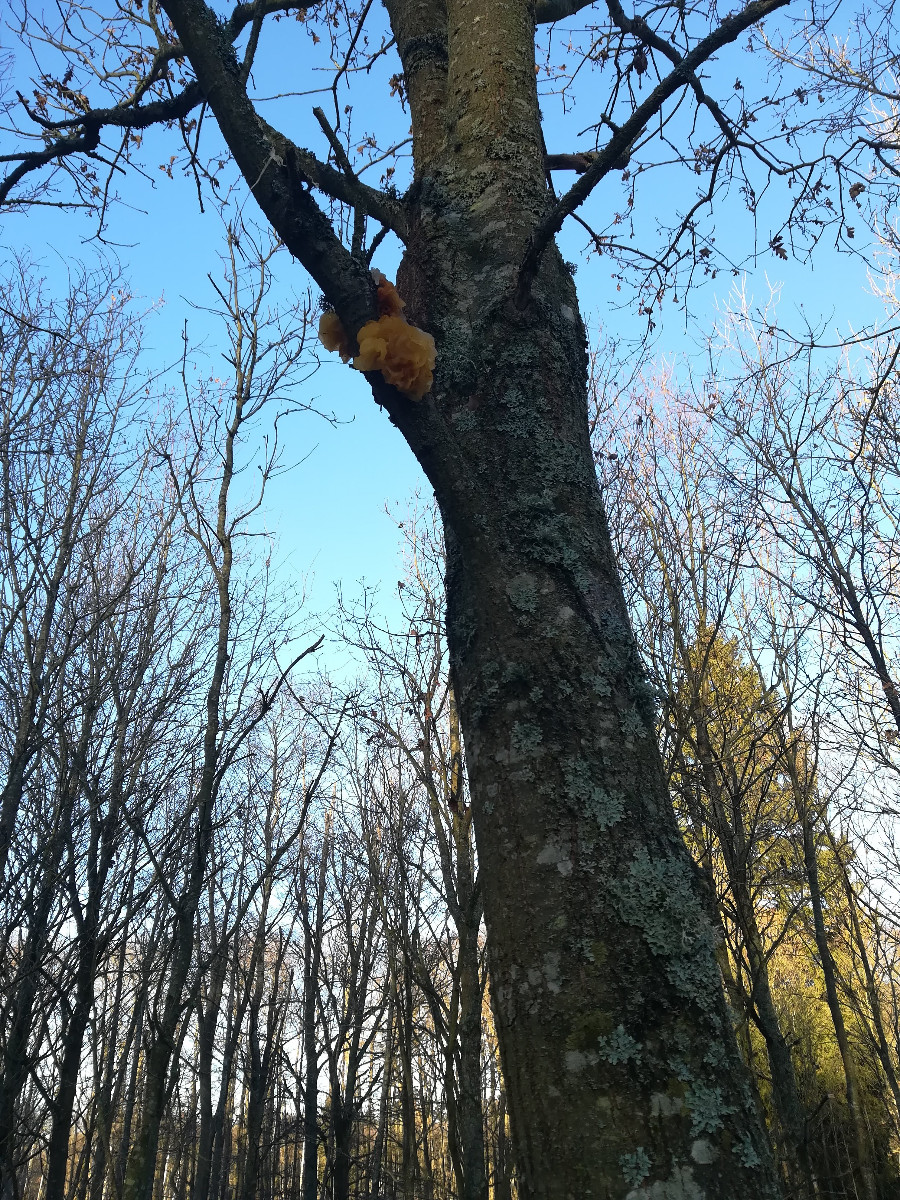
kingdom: Fungi
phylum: Basidiomycota
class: Tremellomycetes
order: Tremellales
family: Tremellaceae
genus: Tremella
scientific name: Tremella mesenterica
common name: gul bævresvamp
